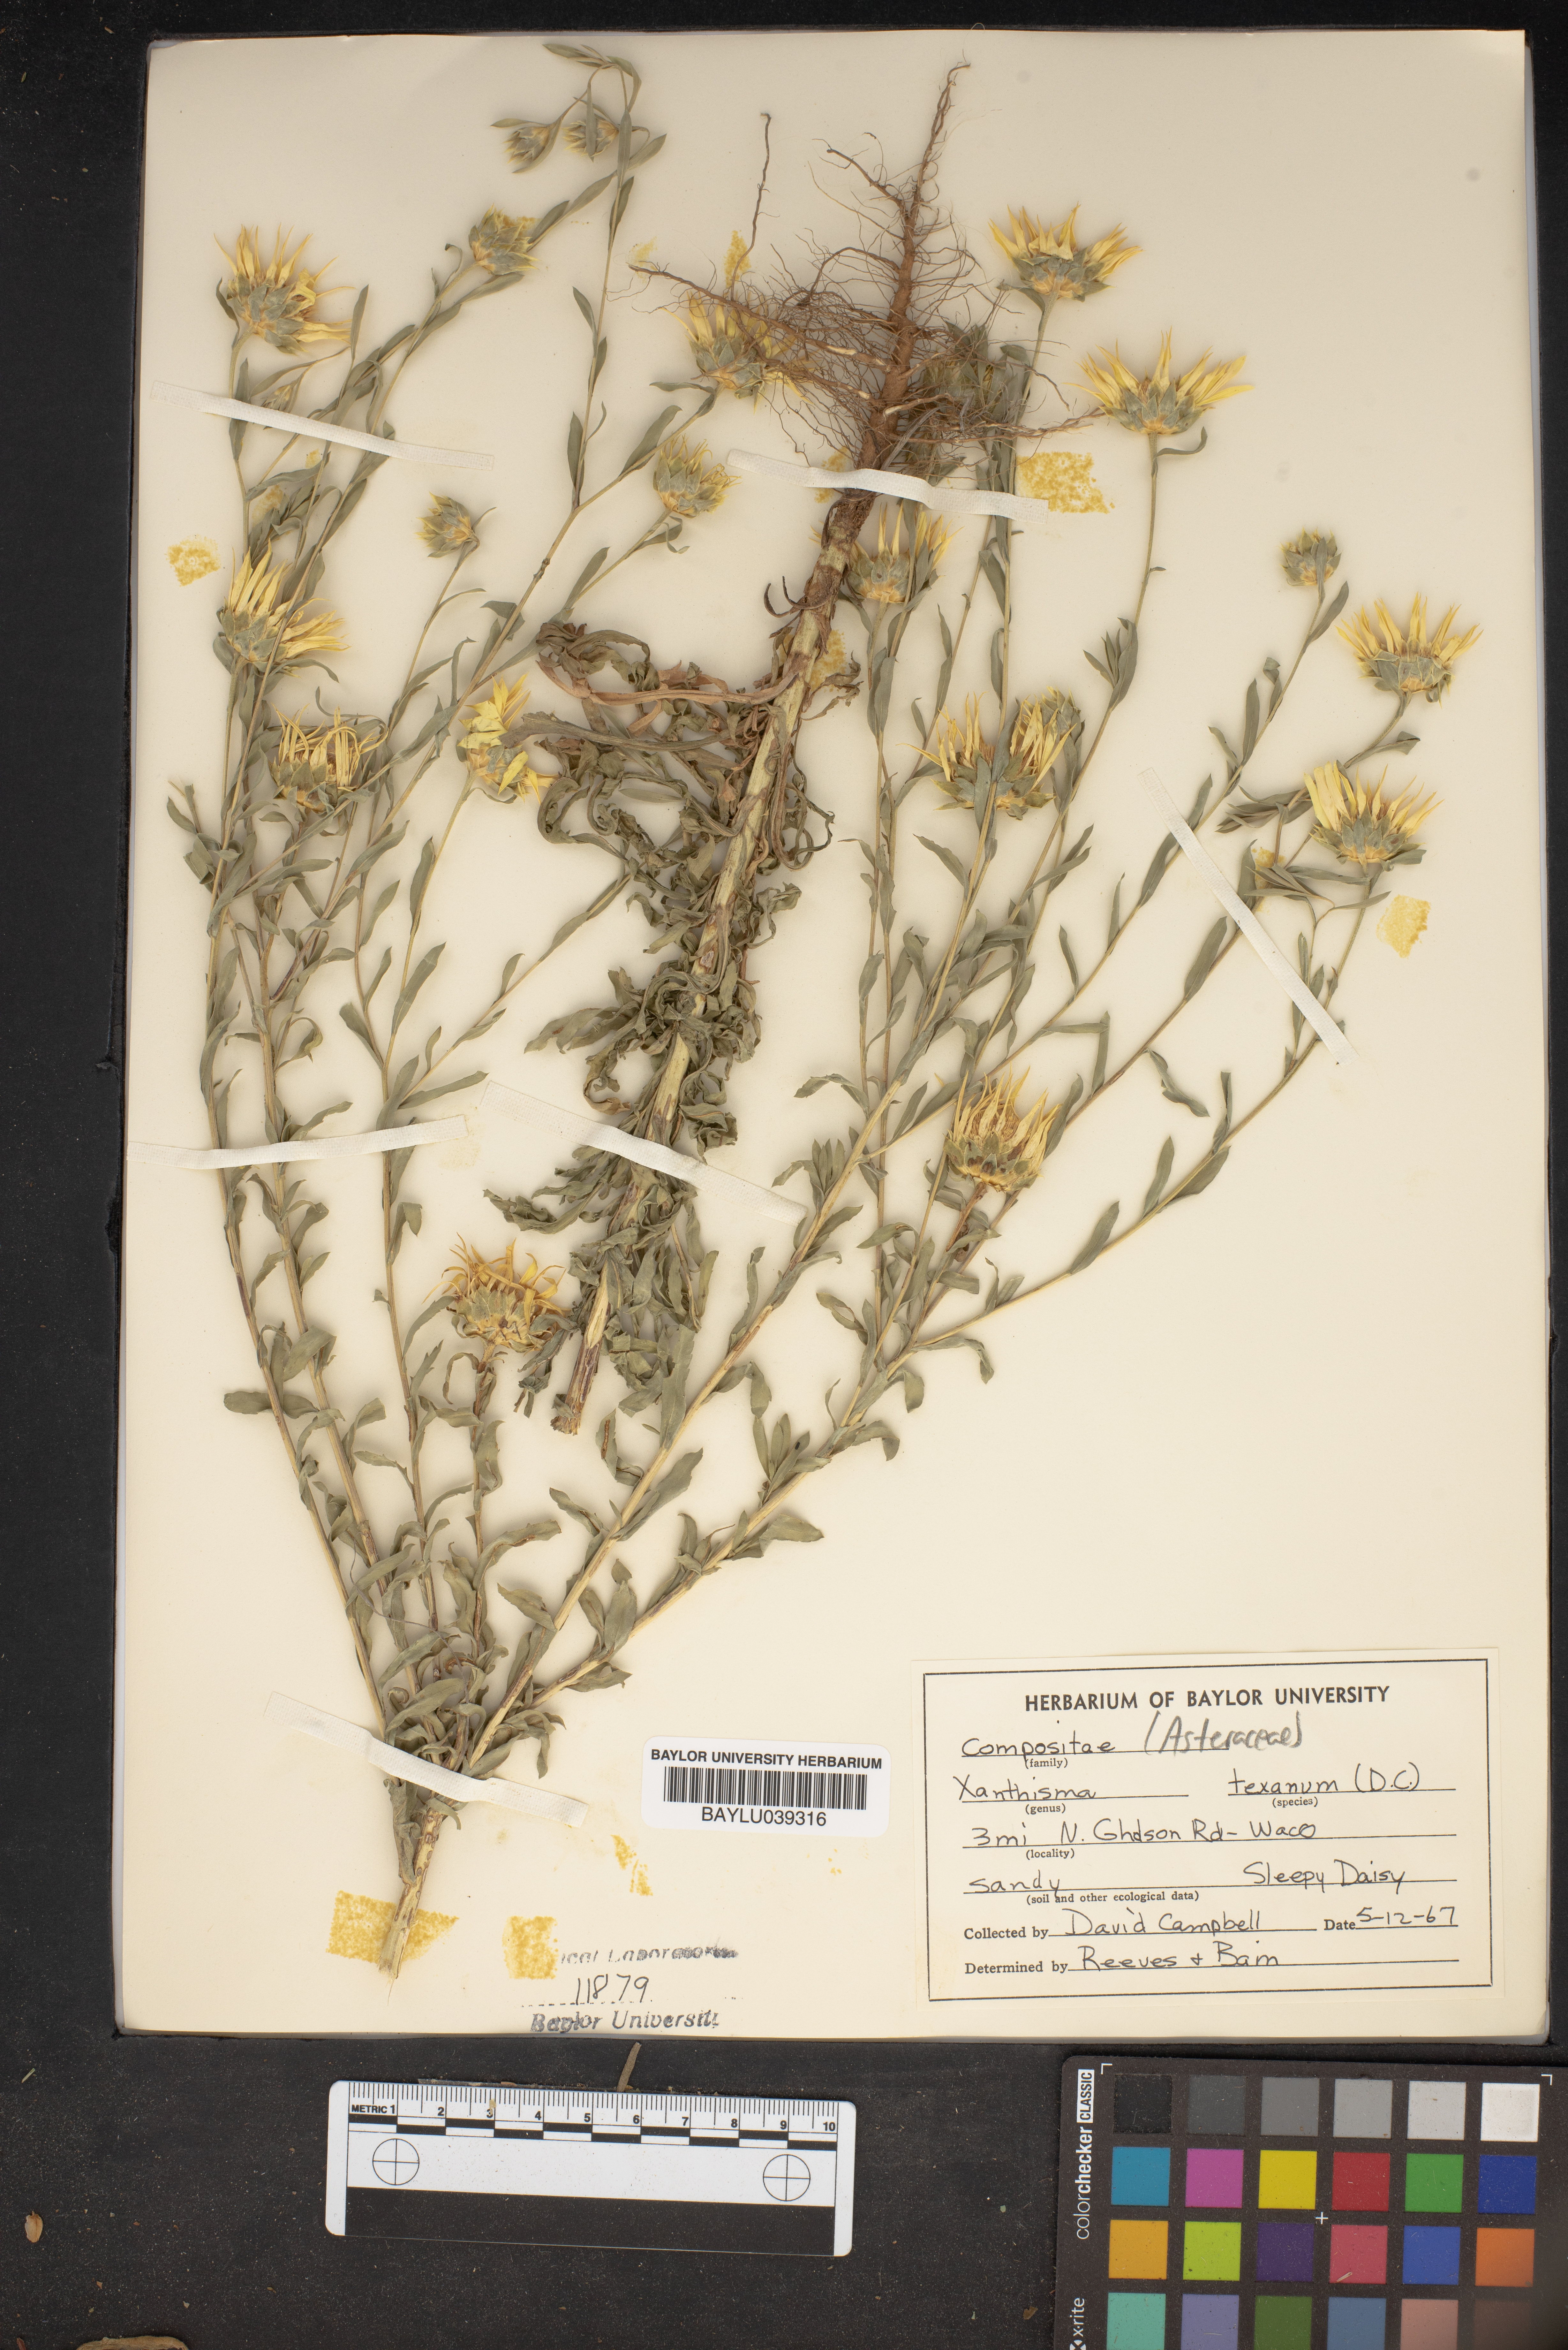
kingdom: Plantae
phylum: Tracheophyta
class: Magnoliopsida
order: Asterales
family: Asteraceae
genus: Xanthisma
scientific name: Xanthisma texanum
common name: Texas sleepy daisy
